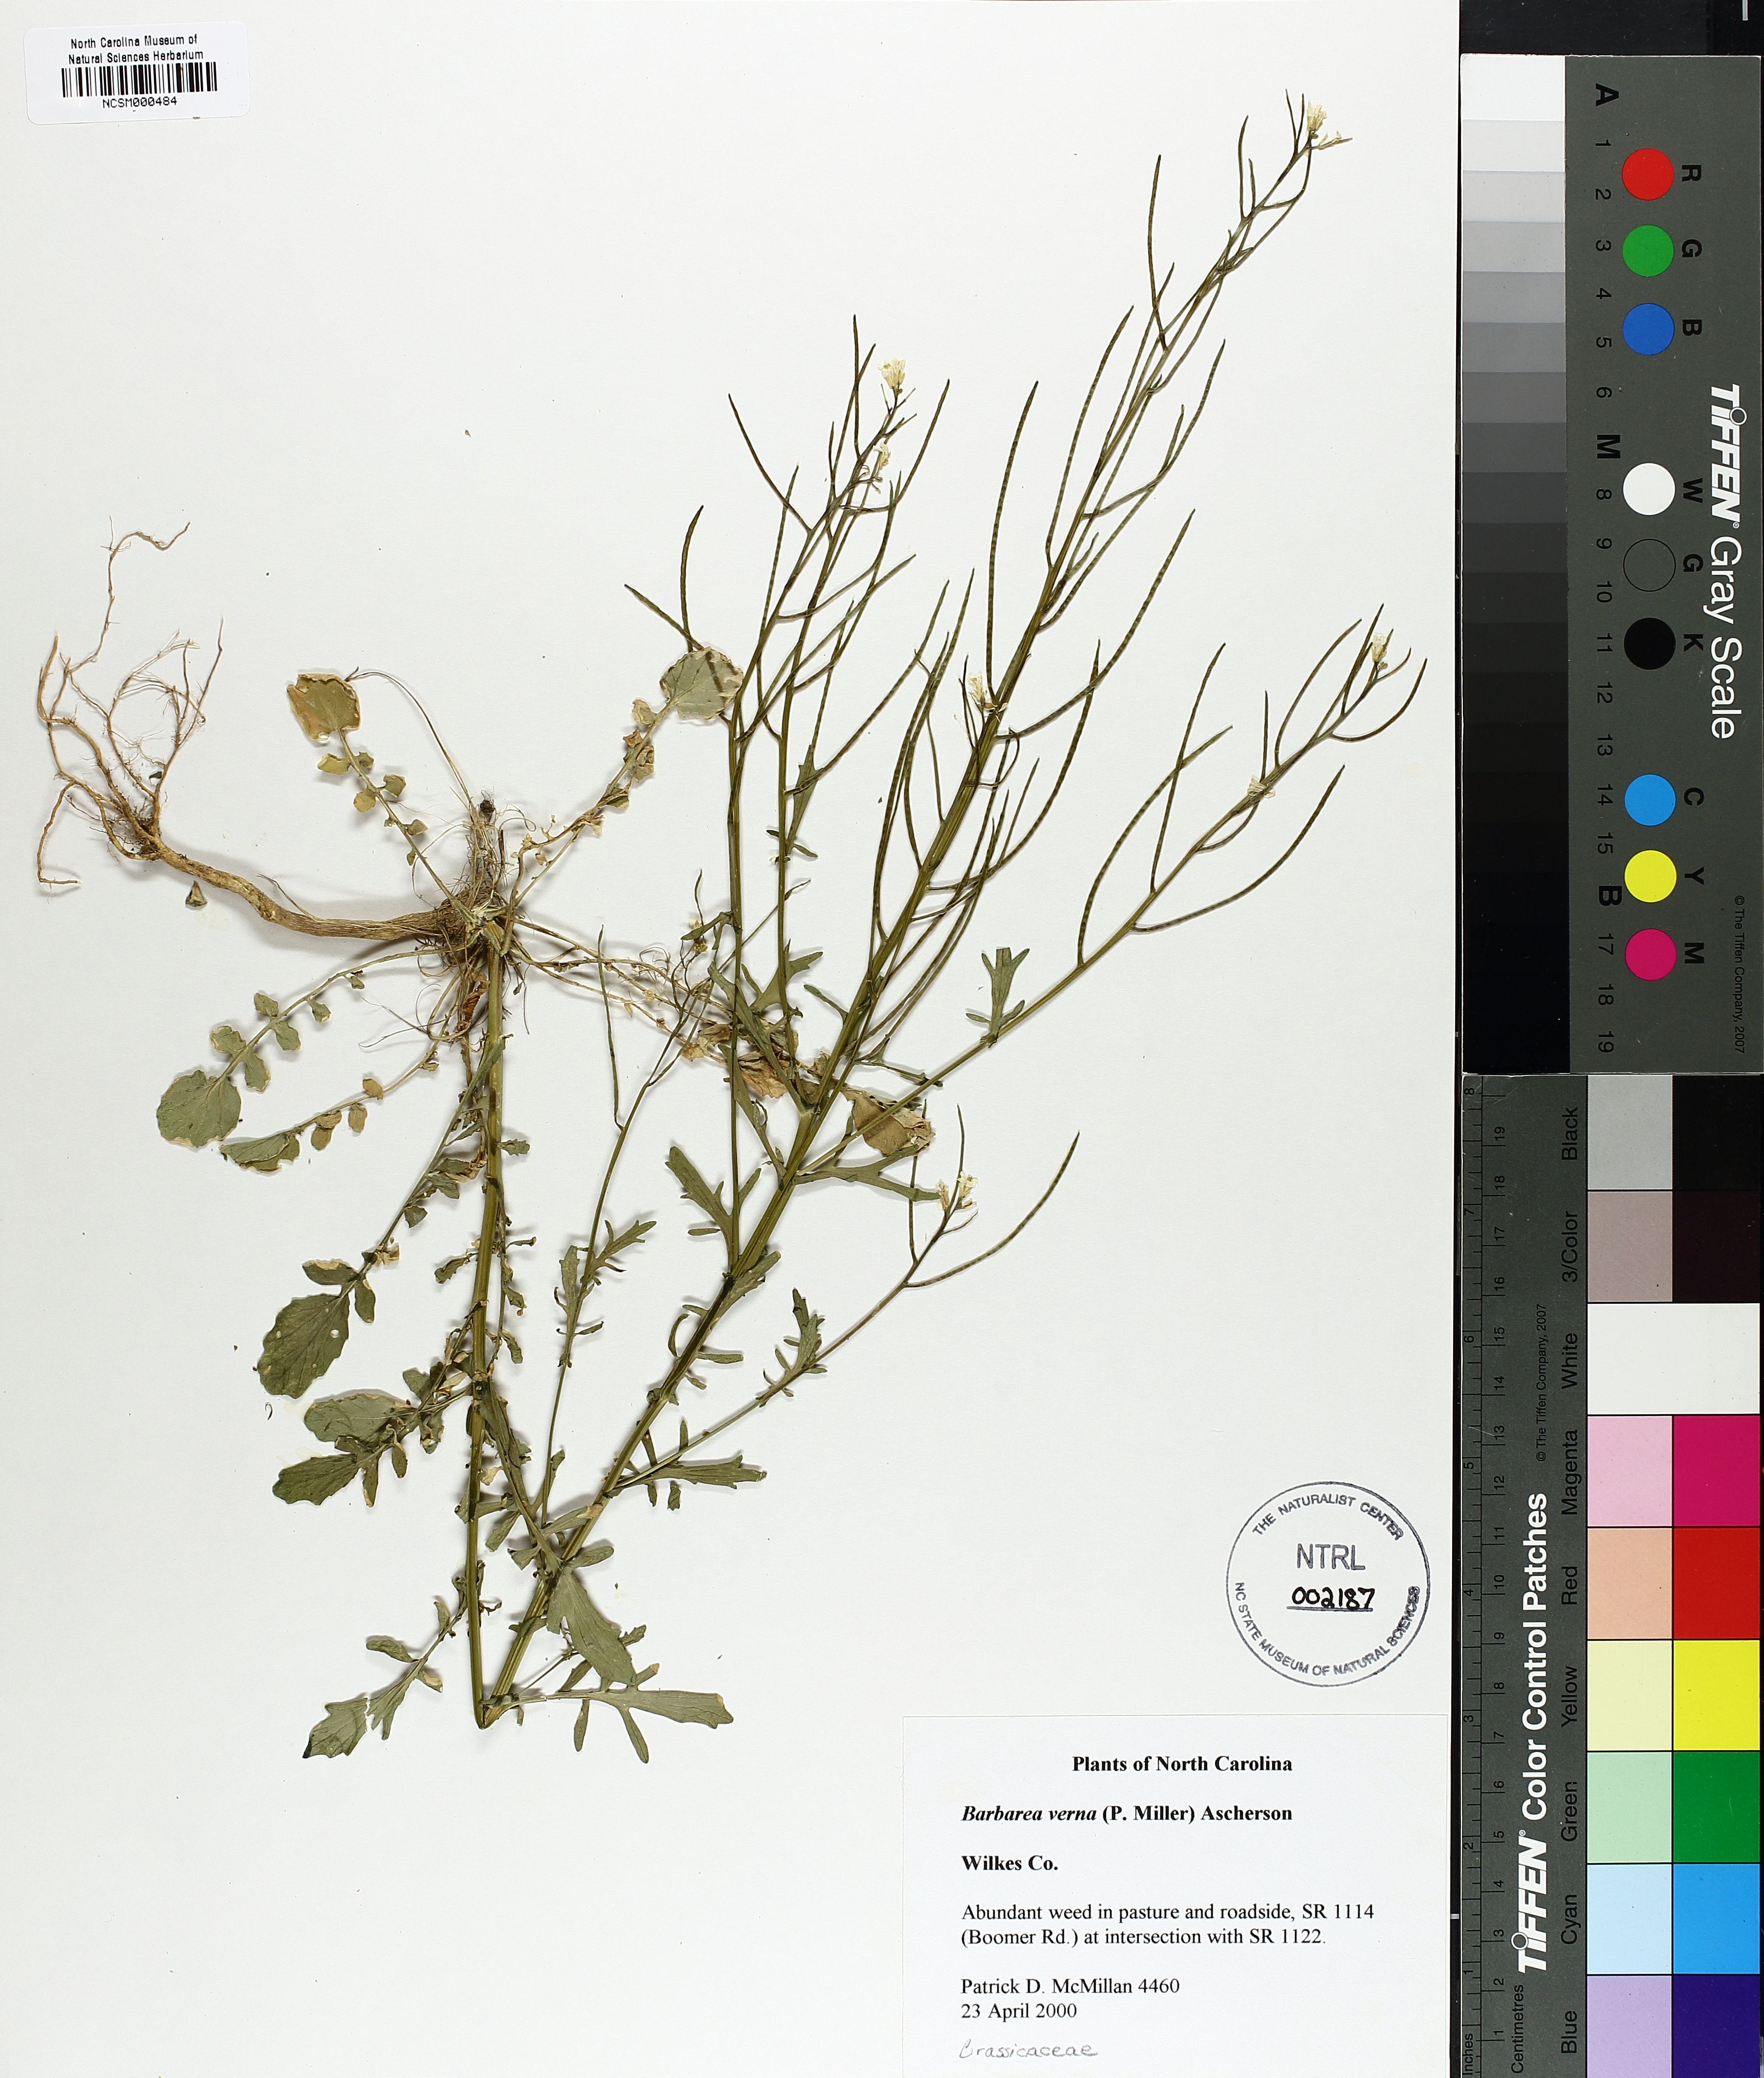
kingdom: Plantae
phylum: Tracheophyta
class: Magnoliopsida
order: Brassicales
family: Brassicaceae
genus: Barbarea
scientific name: Barbarea verna
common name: American cress
